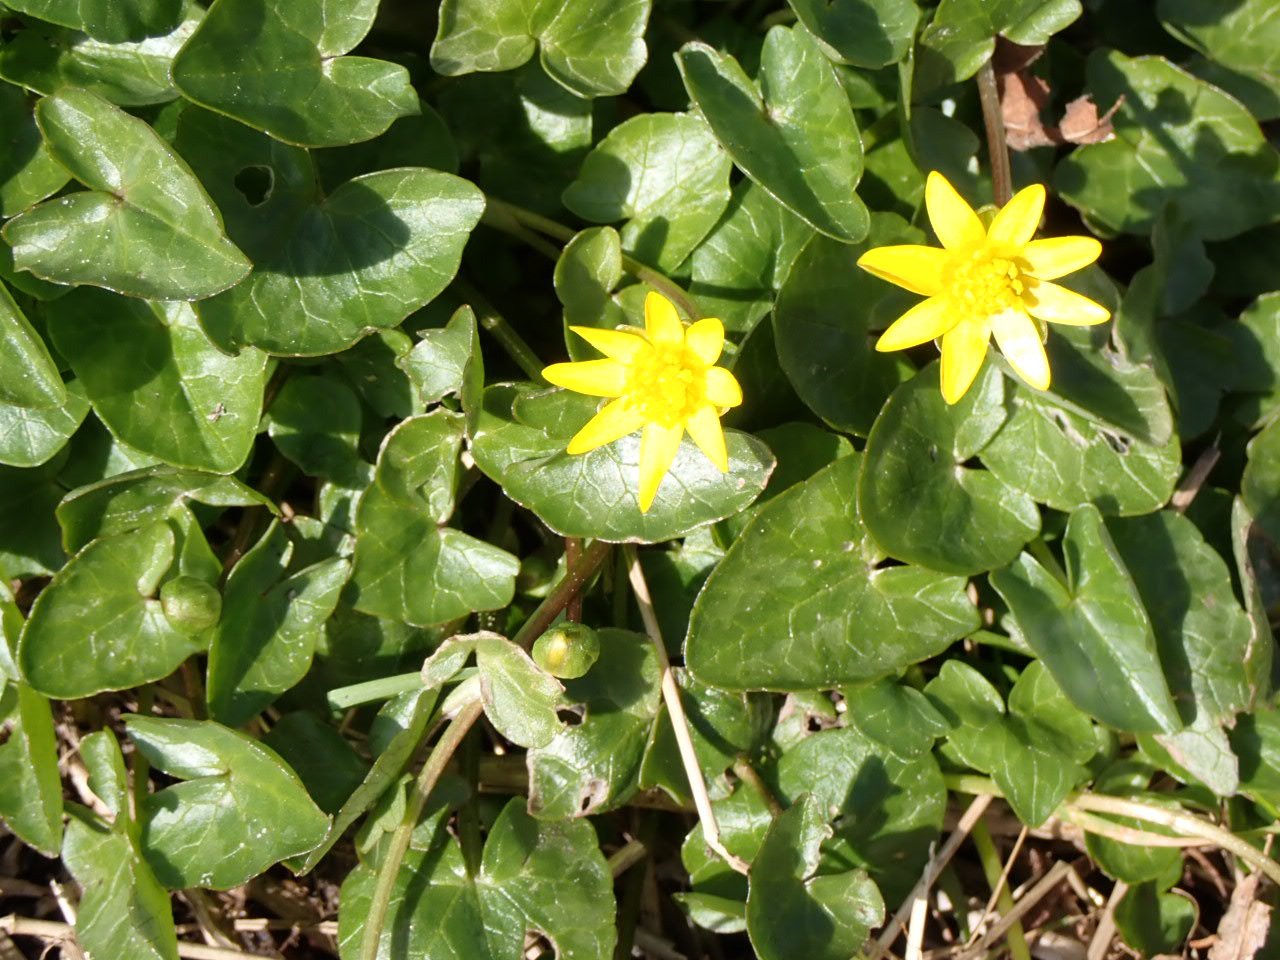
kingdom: Plantae
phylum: Tracheophyta
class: Magnoliopsida
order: Ranunculales
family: Ranunculaceae
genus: Ficaria
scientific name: Ficaria verna
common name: Vorterod
